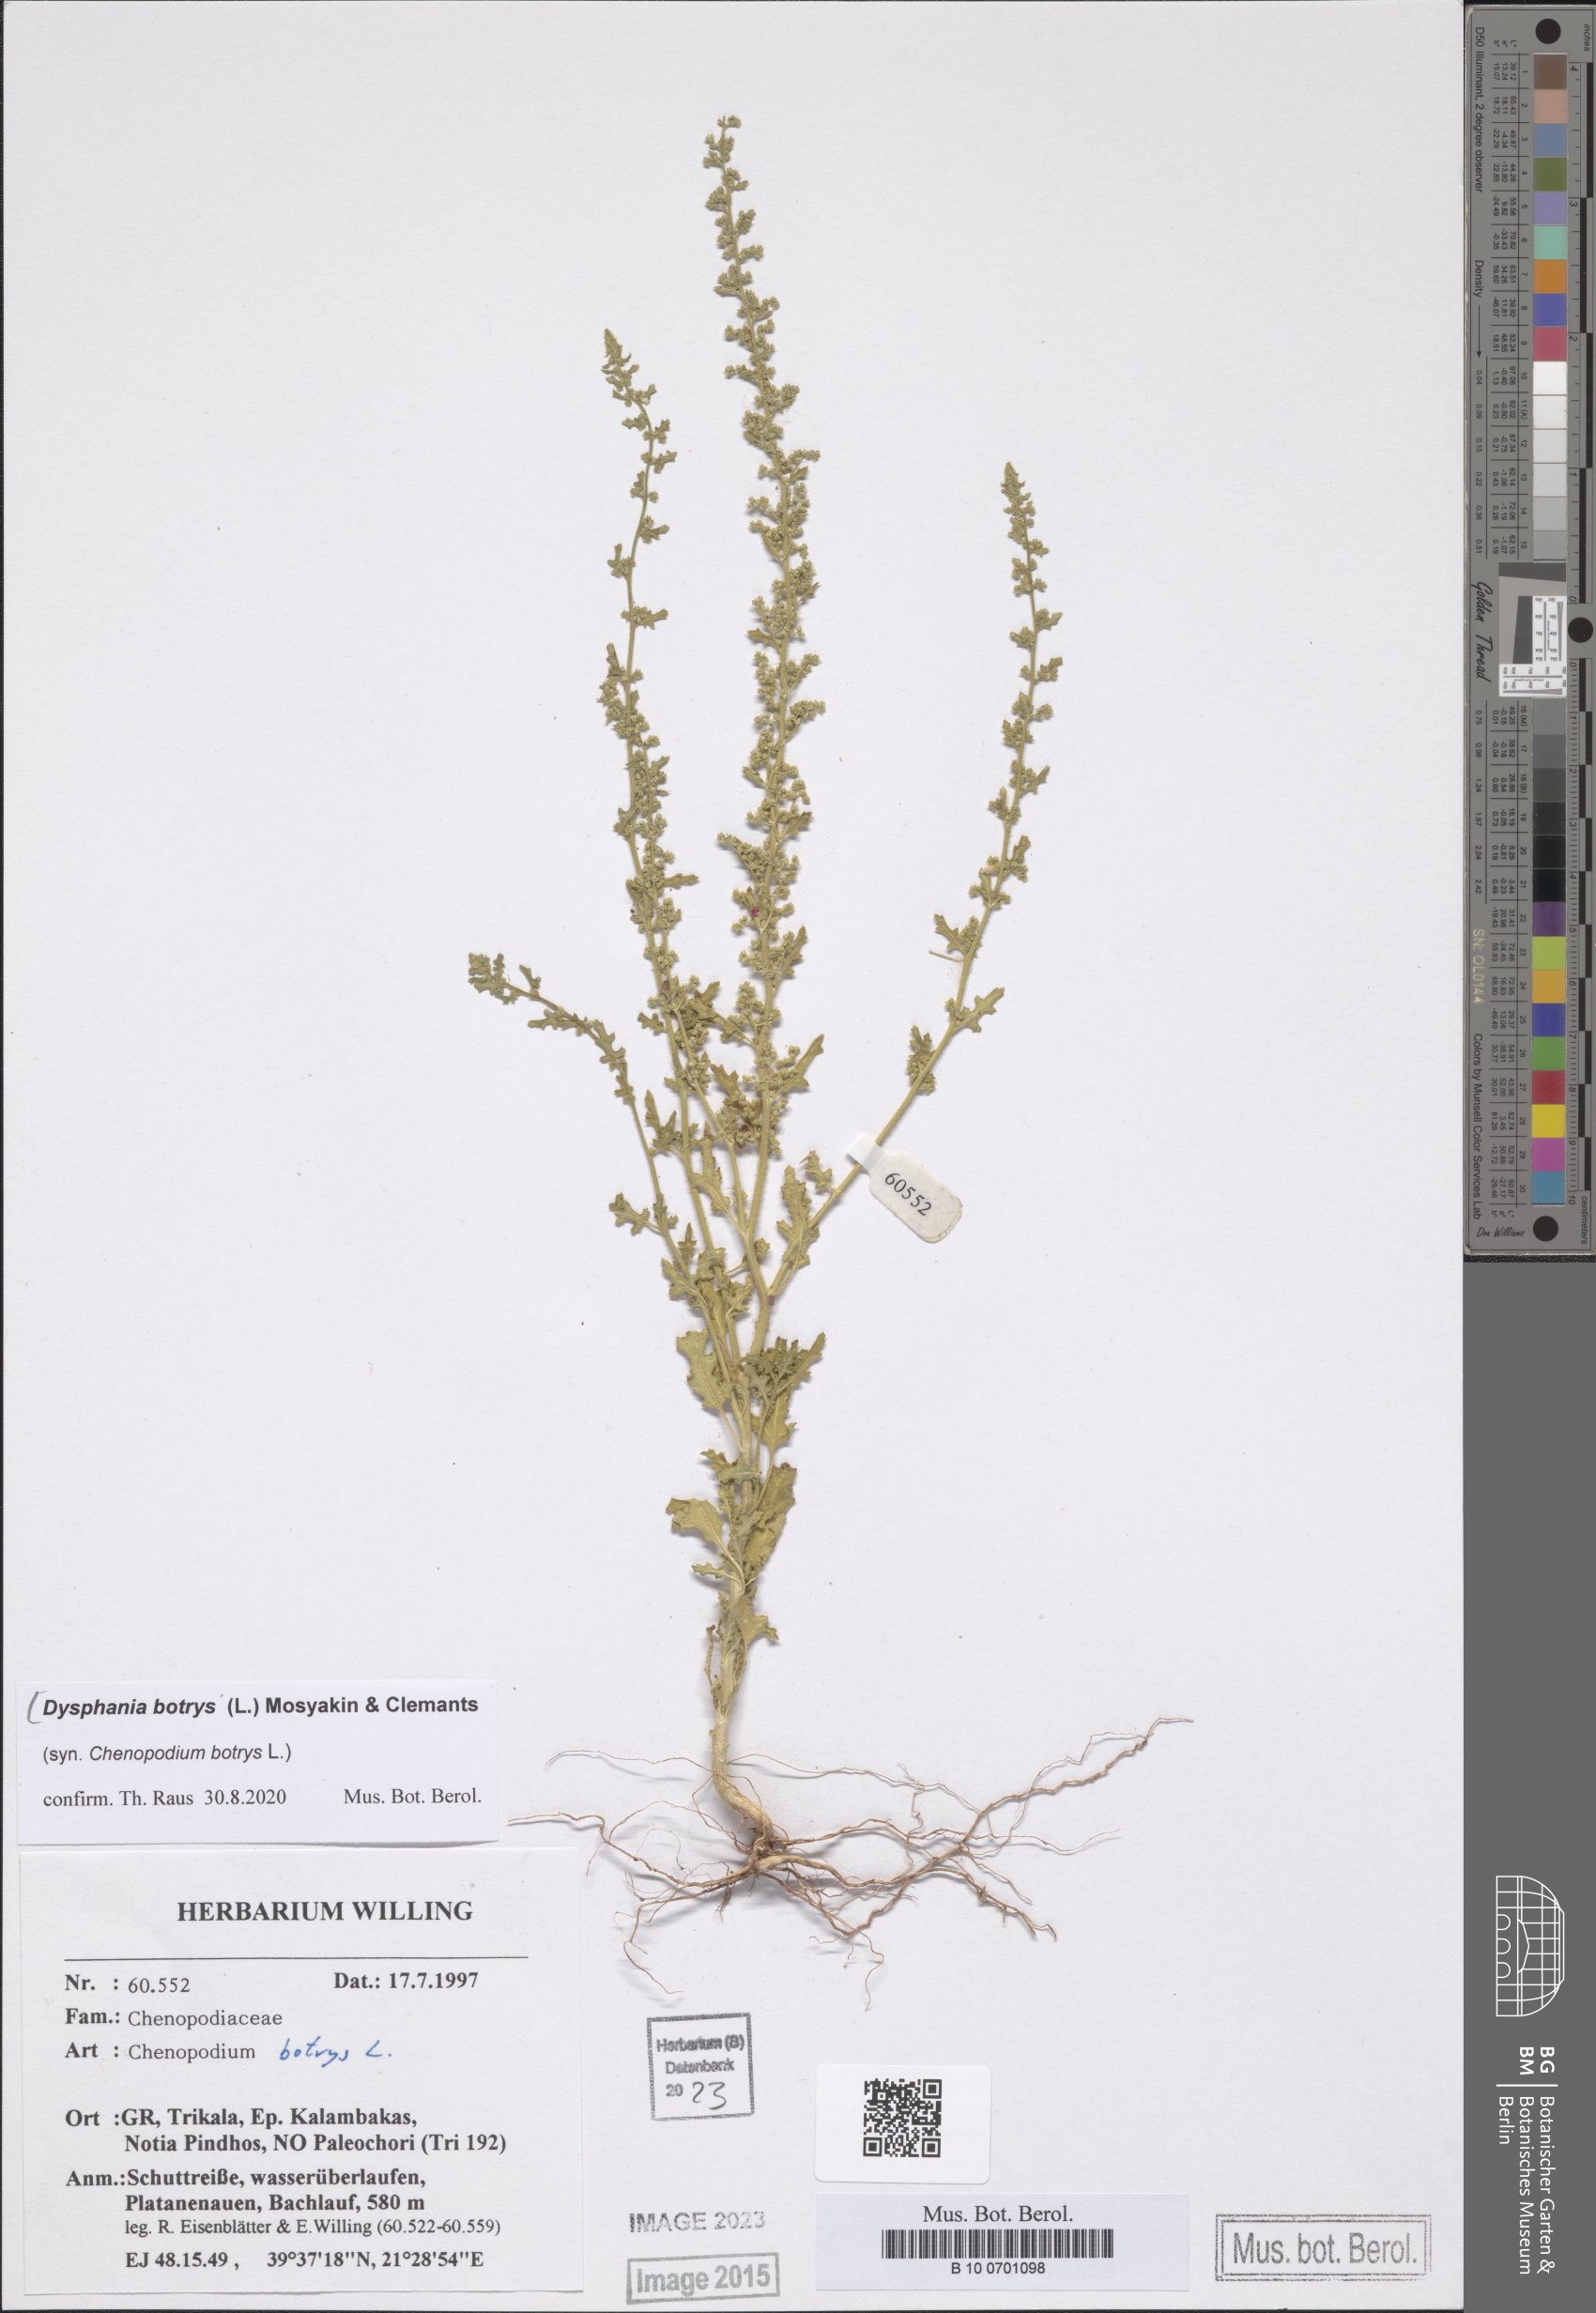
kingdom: Plantae
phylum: Tracheophyta
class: Magnoliopsida
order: Caryophyllales
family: Amaranthaceae
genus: Dysphania
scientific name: Dysphania botrys
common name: Feather-geranium
